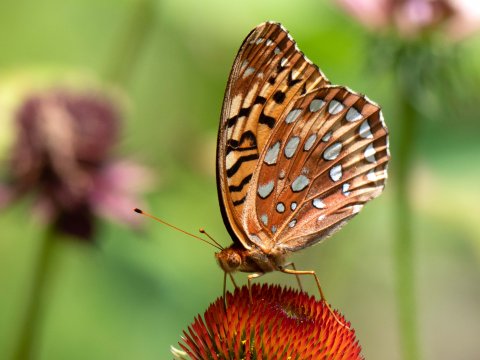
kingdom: Animalia
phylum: Arthropoda
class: Insecta
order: Lepidoptera
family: Nymphalidae
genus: Speyeria
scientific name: Speyeria cybele
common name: Great Spangled Fritillary
